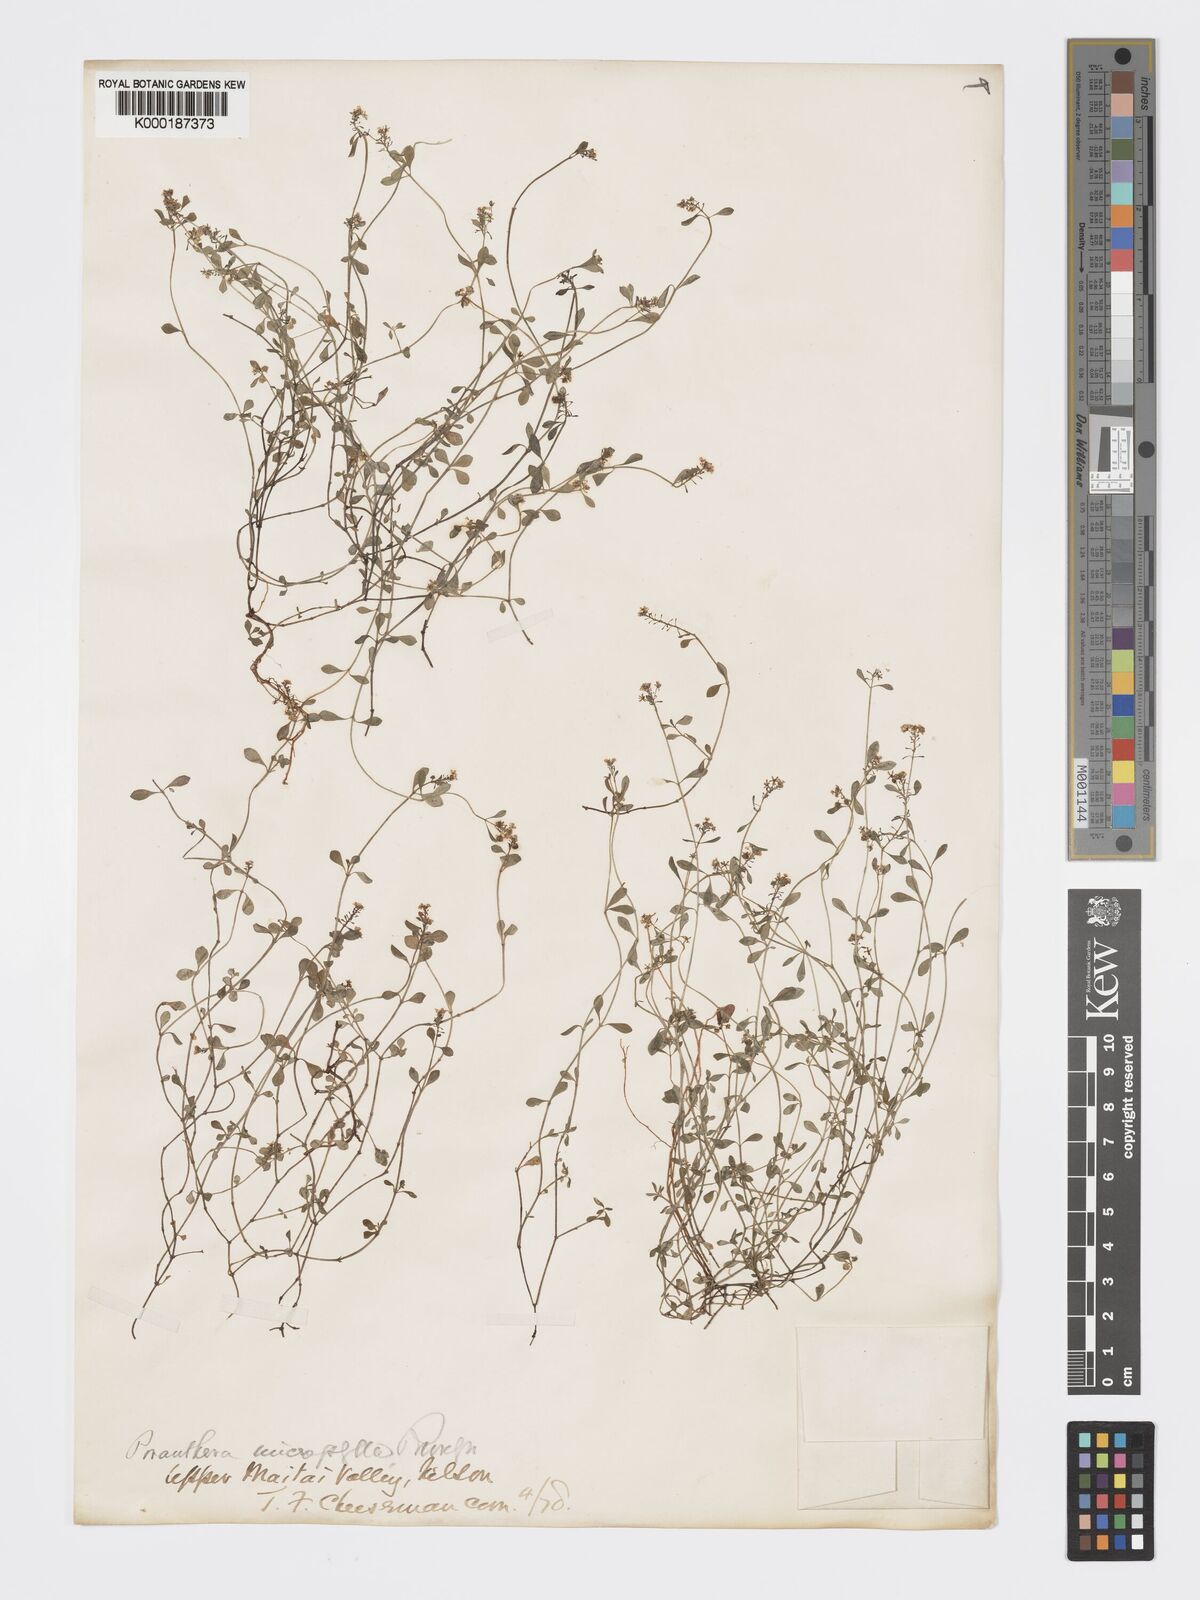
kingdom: Plantae
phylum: Tracheophyta
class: Magnoliopsida
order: Malpighiales
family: Phyllanthaceae
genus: Poranthera
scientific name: Poranthera microphylla
